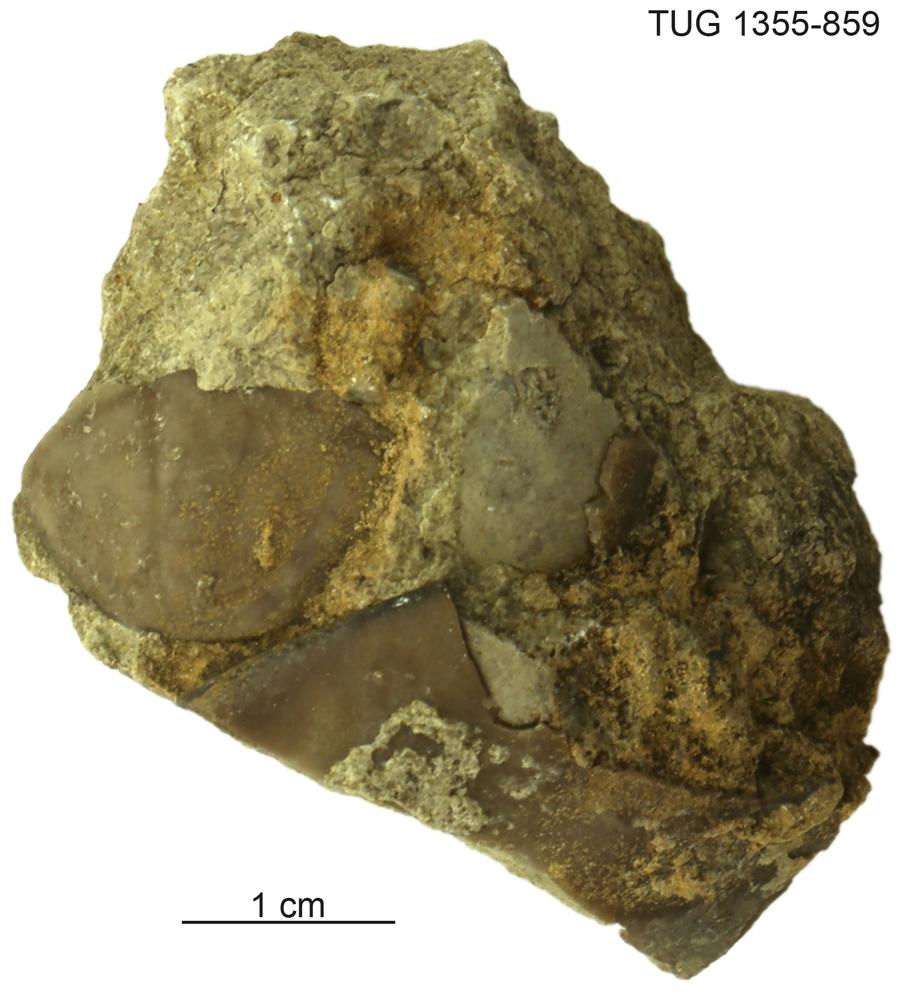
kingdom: Animalia
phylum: Arthropoda
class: Trilobita
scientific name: Trilobita
